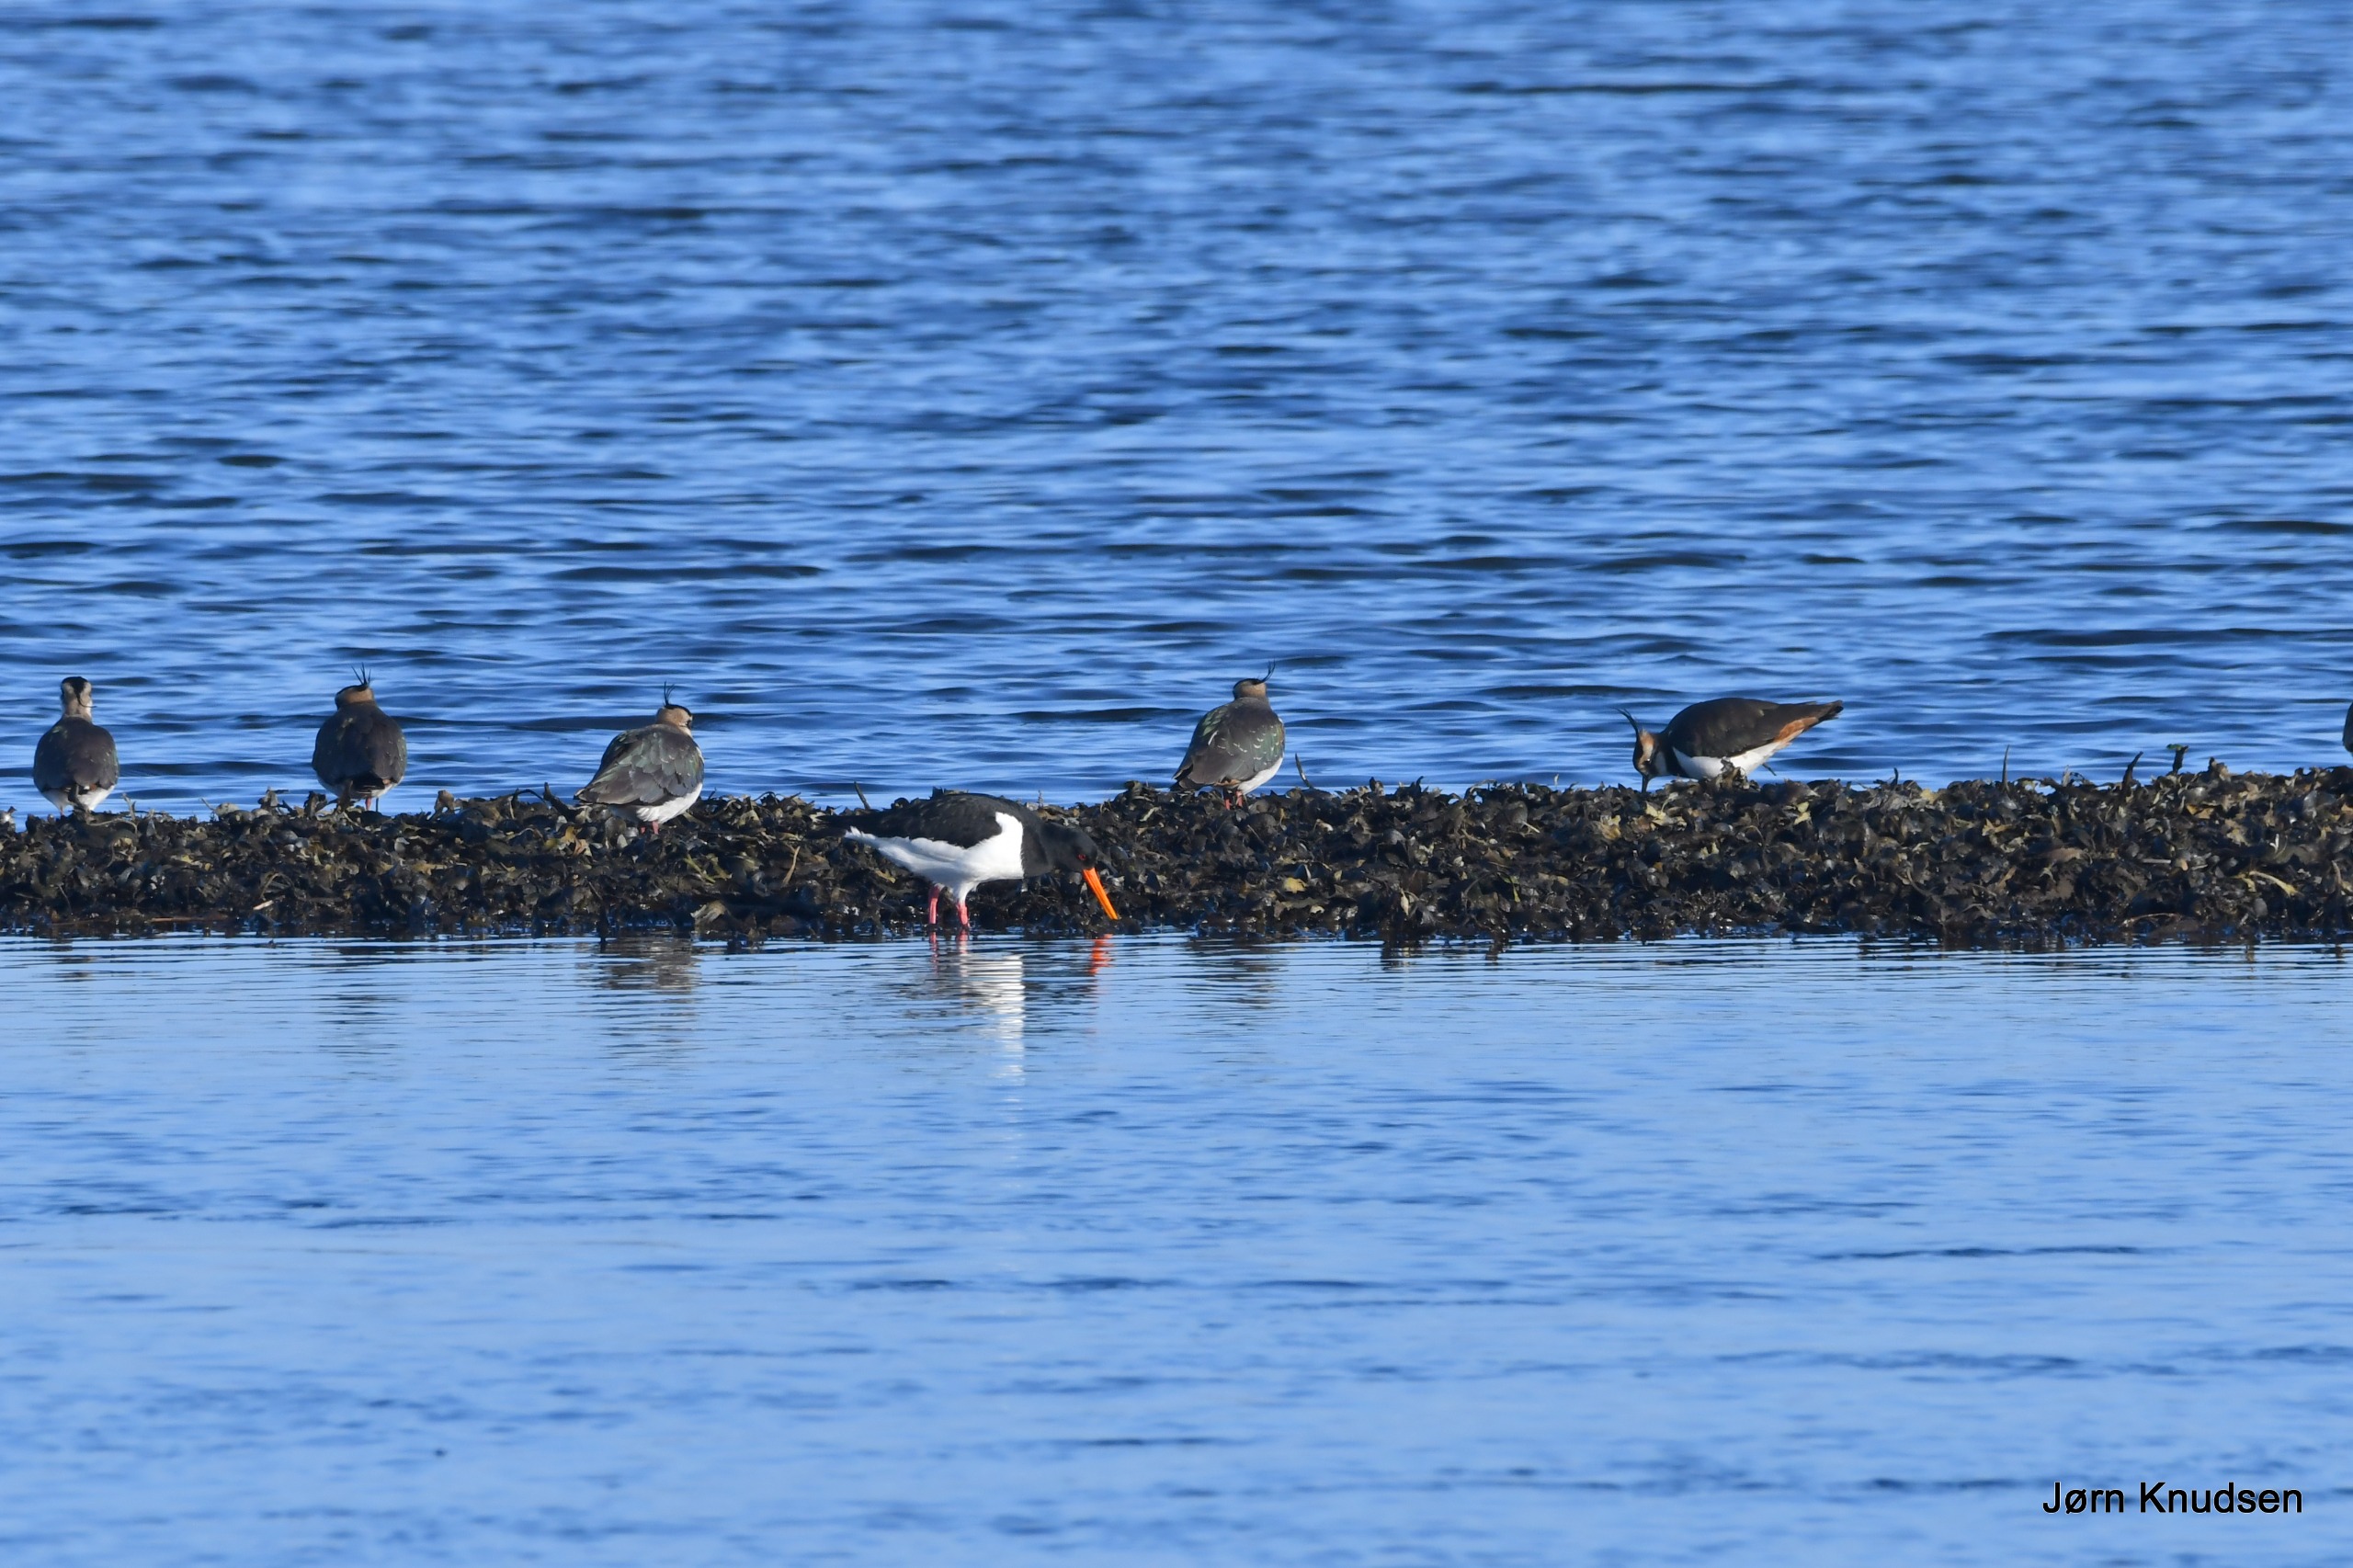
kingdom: Animalia
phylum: Chordata
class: Aves
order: Charadriiformes
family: Haematopodidae
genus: Haematopus
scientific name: Haematopus ostralegus
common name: Strandskade
